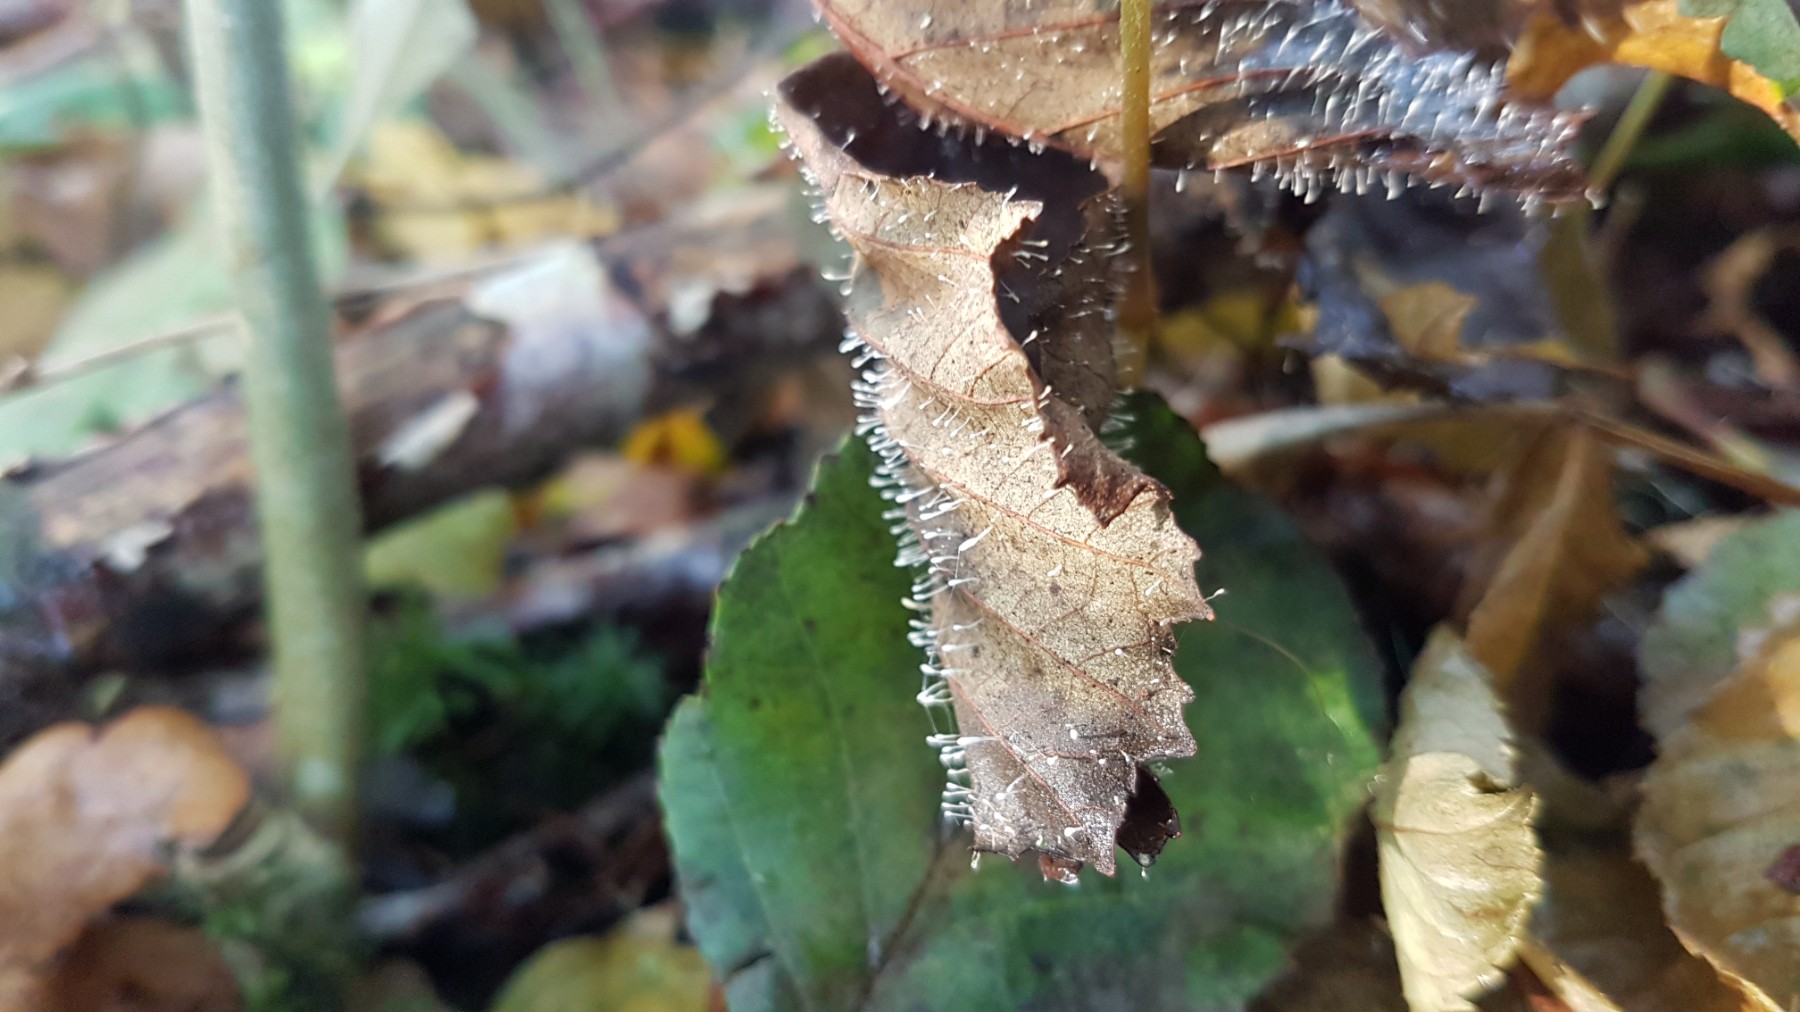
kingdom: Fungi
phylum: Basidiomycota
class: Agaricomycetes
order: Agaricales
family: Typhulaceae
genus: Typhula
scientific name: Typhula setipes
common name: liden trådkølle
